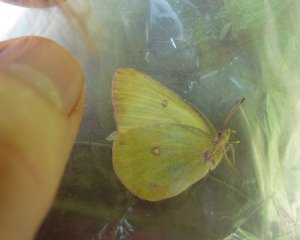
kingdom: Animalia
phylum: Arthropoda
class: Insecta
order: Lepidoptera
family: Pieridae
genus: Colias
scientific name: Colias interior
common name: Pink-edged Sulphur
